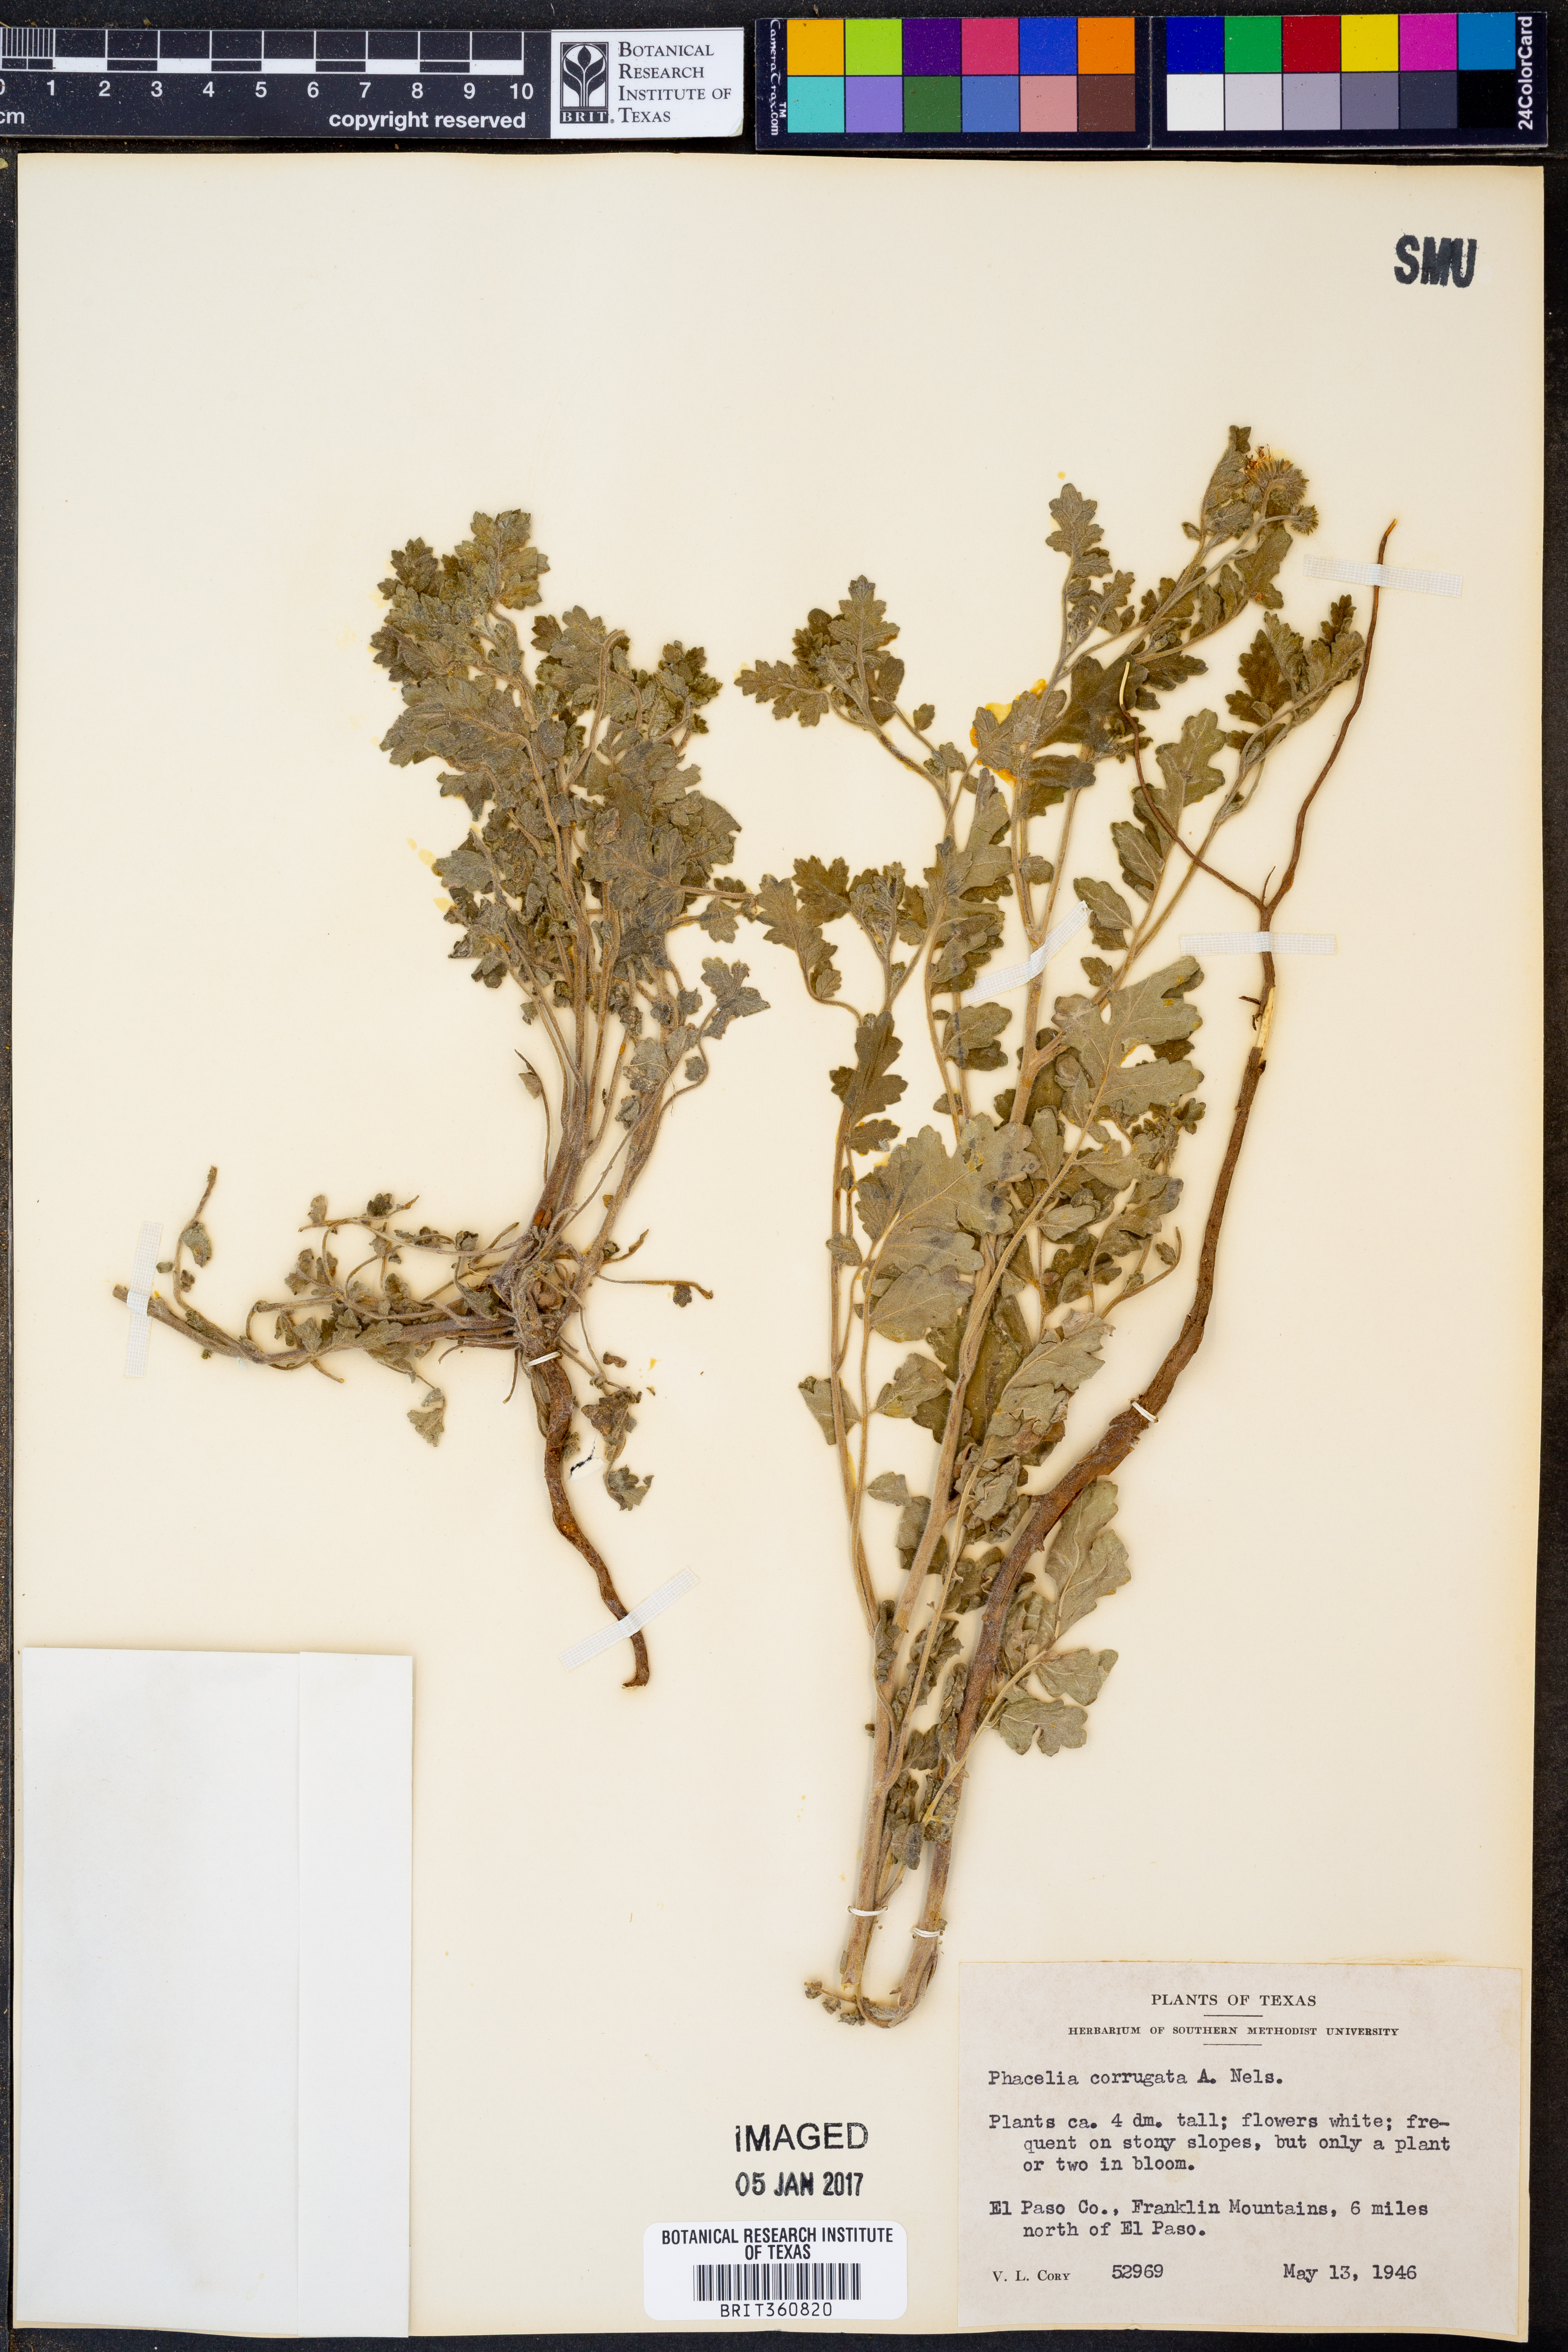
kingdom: Plantae
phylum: Tracheophyta
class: Magnoliopsida
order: Boraginales
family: Hydrophyllaceae
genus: Phacelia
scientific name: Phacelia corrugata
